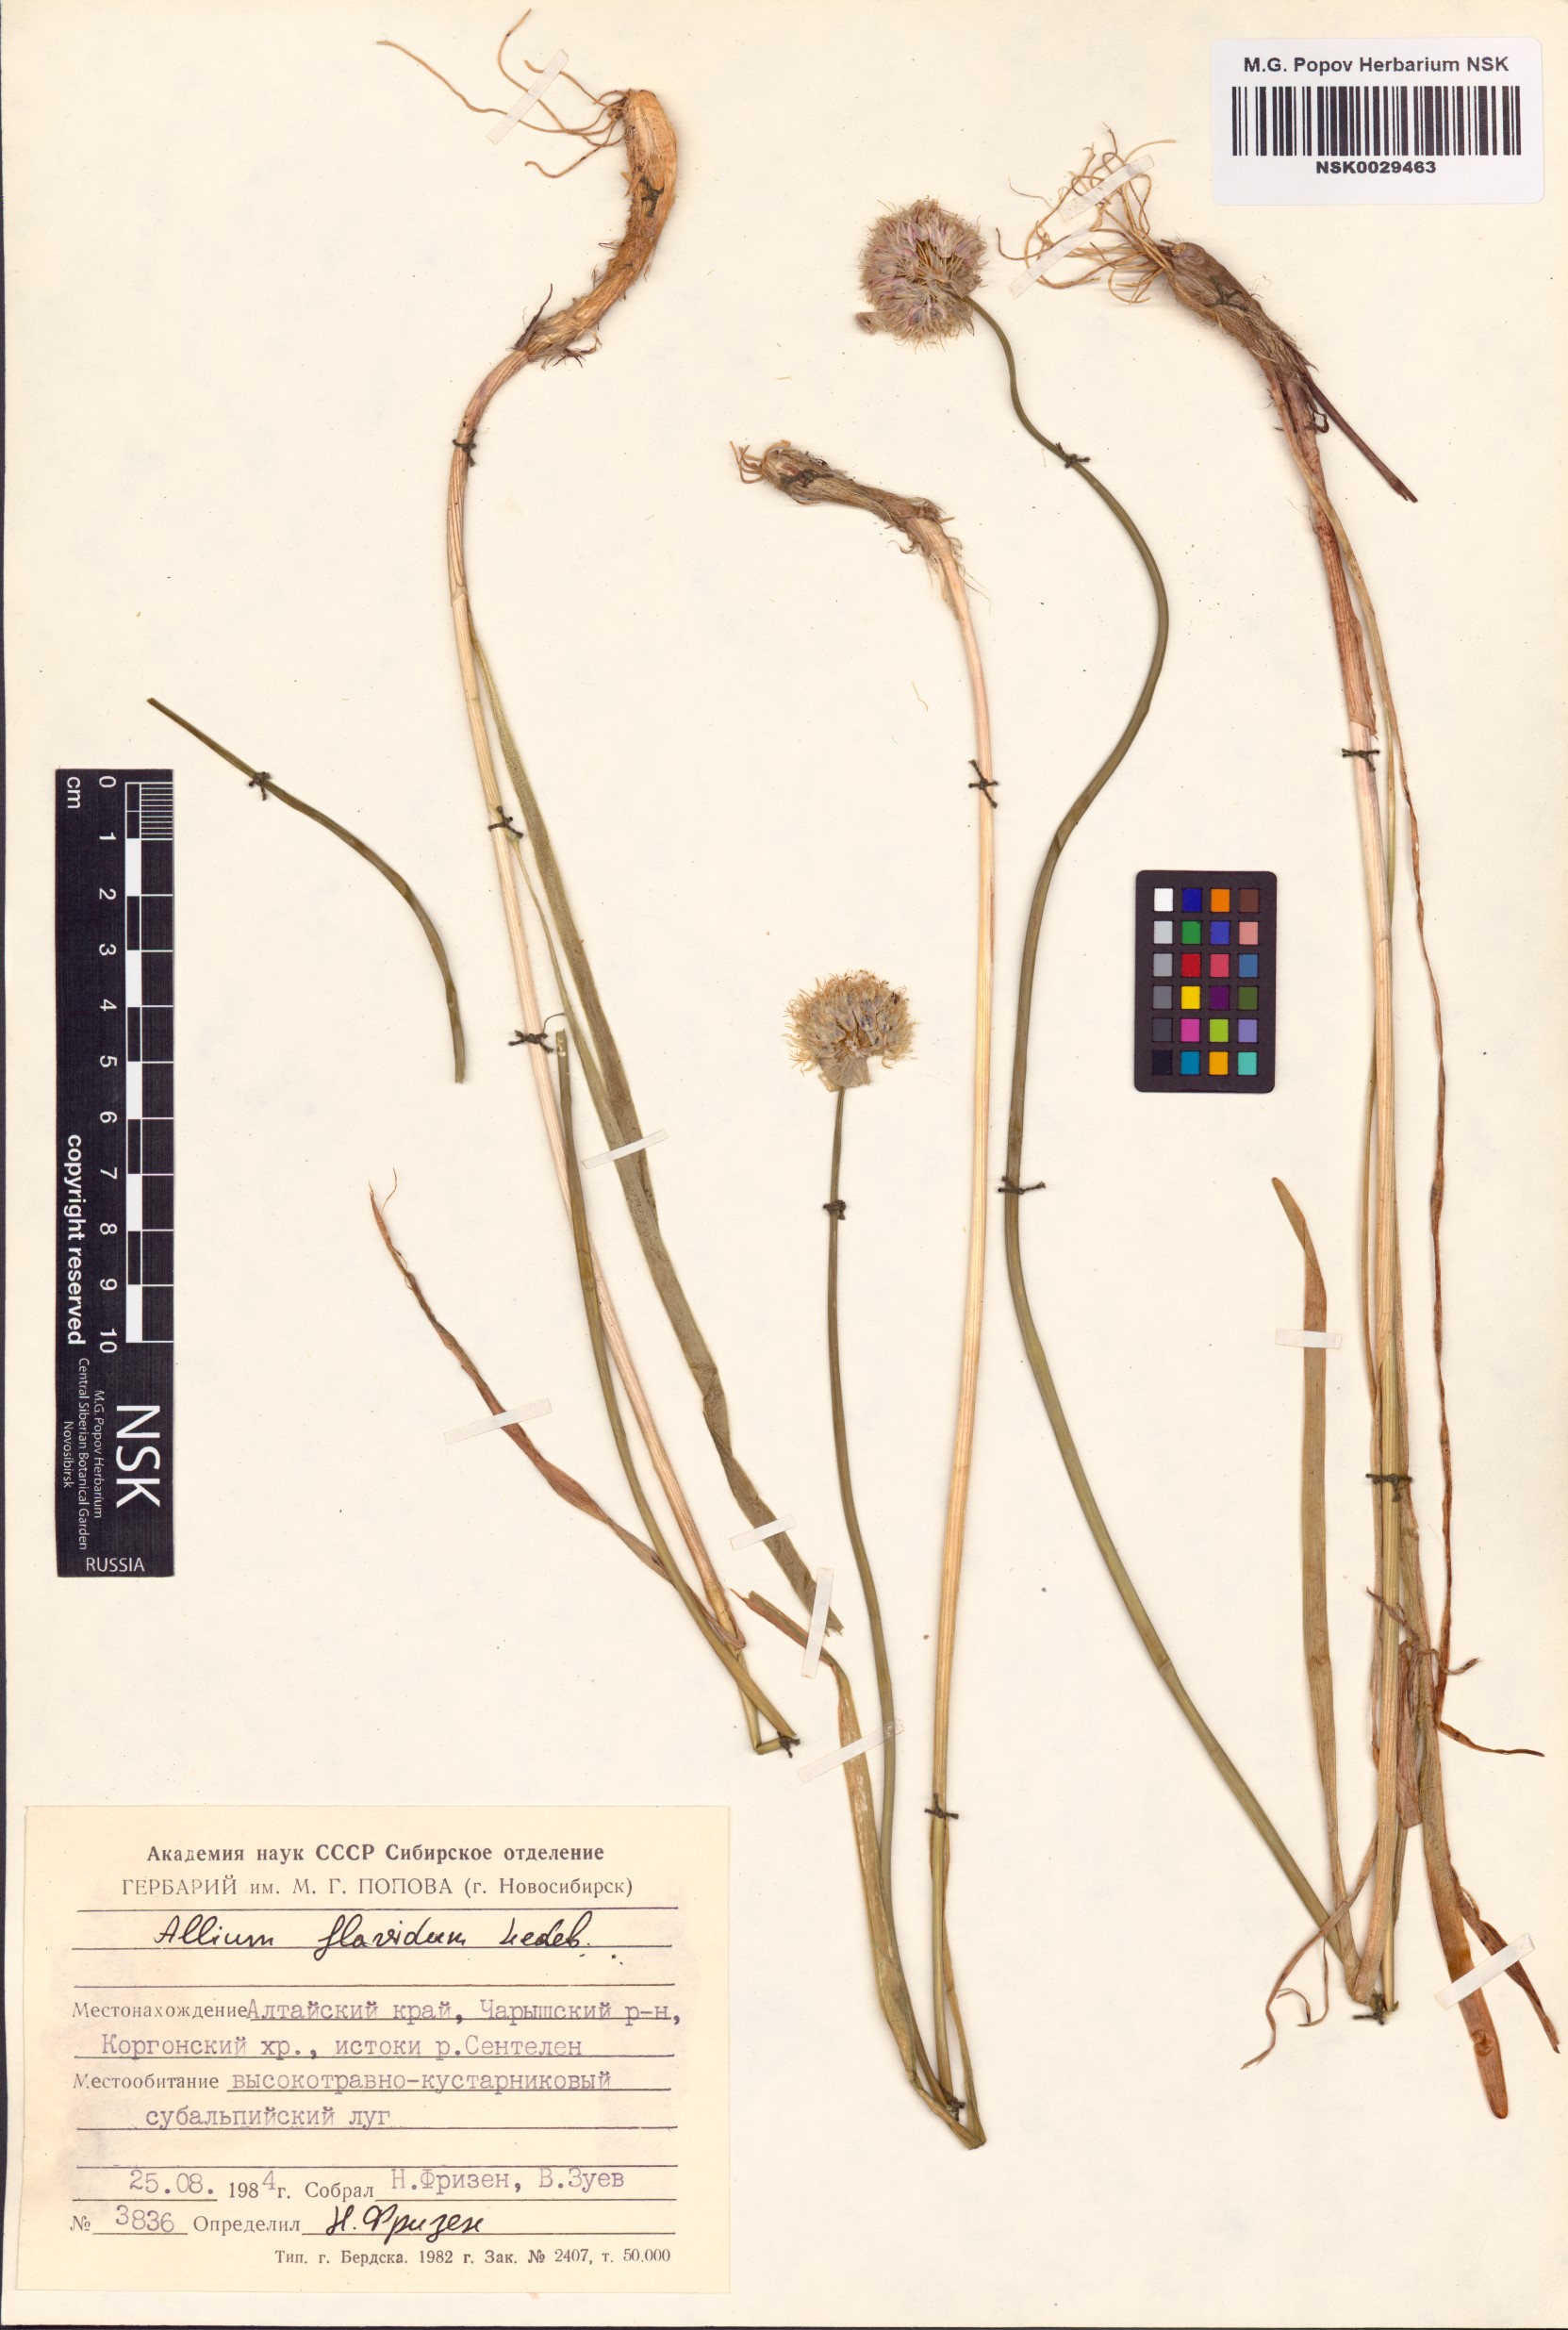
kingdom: Plantae
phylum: Tracheophyta
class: Liliopsida
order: Asparagales
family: Amaryllidaceae
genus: Allium
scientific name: Allium flavidum
